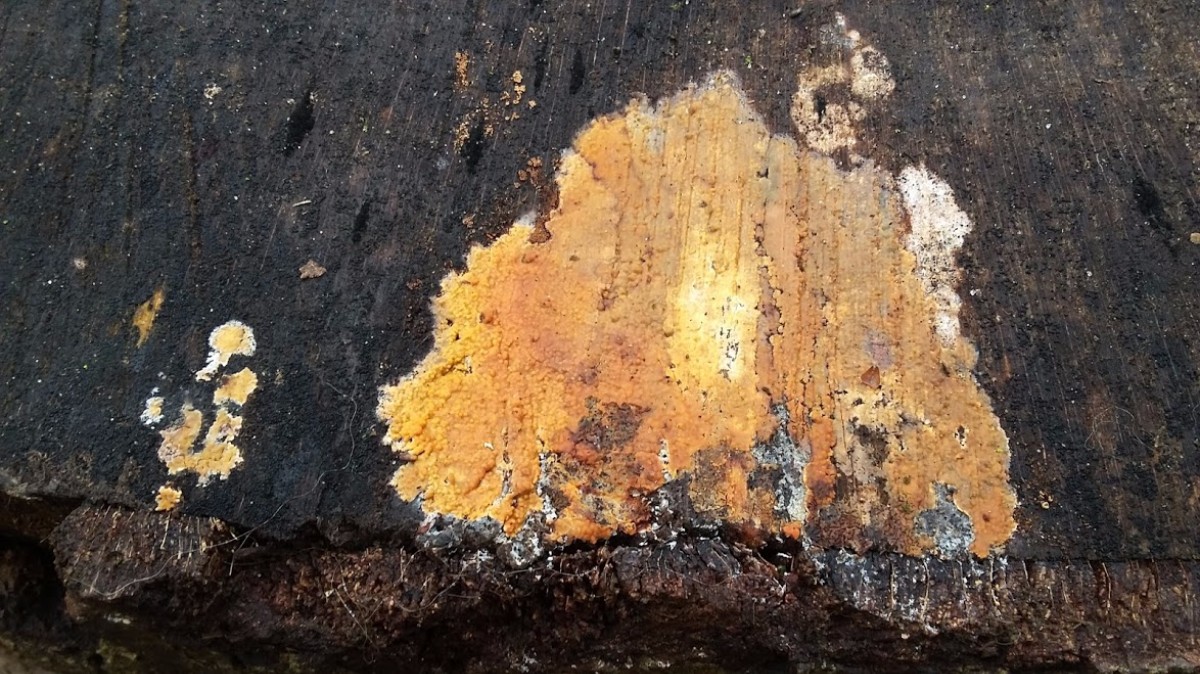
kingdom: Fungi
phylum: Basidiomycota
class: Agaricomycetes
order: Corticiales
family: Corticiaceae
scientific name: Corticiaceae
